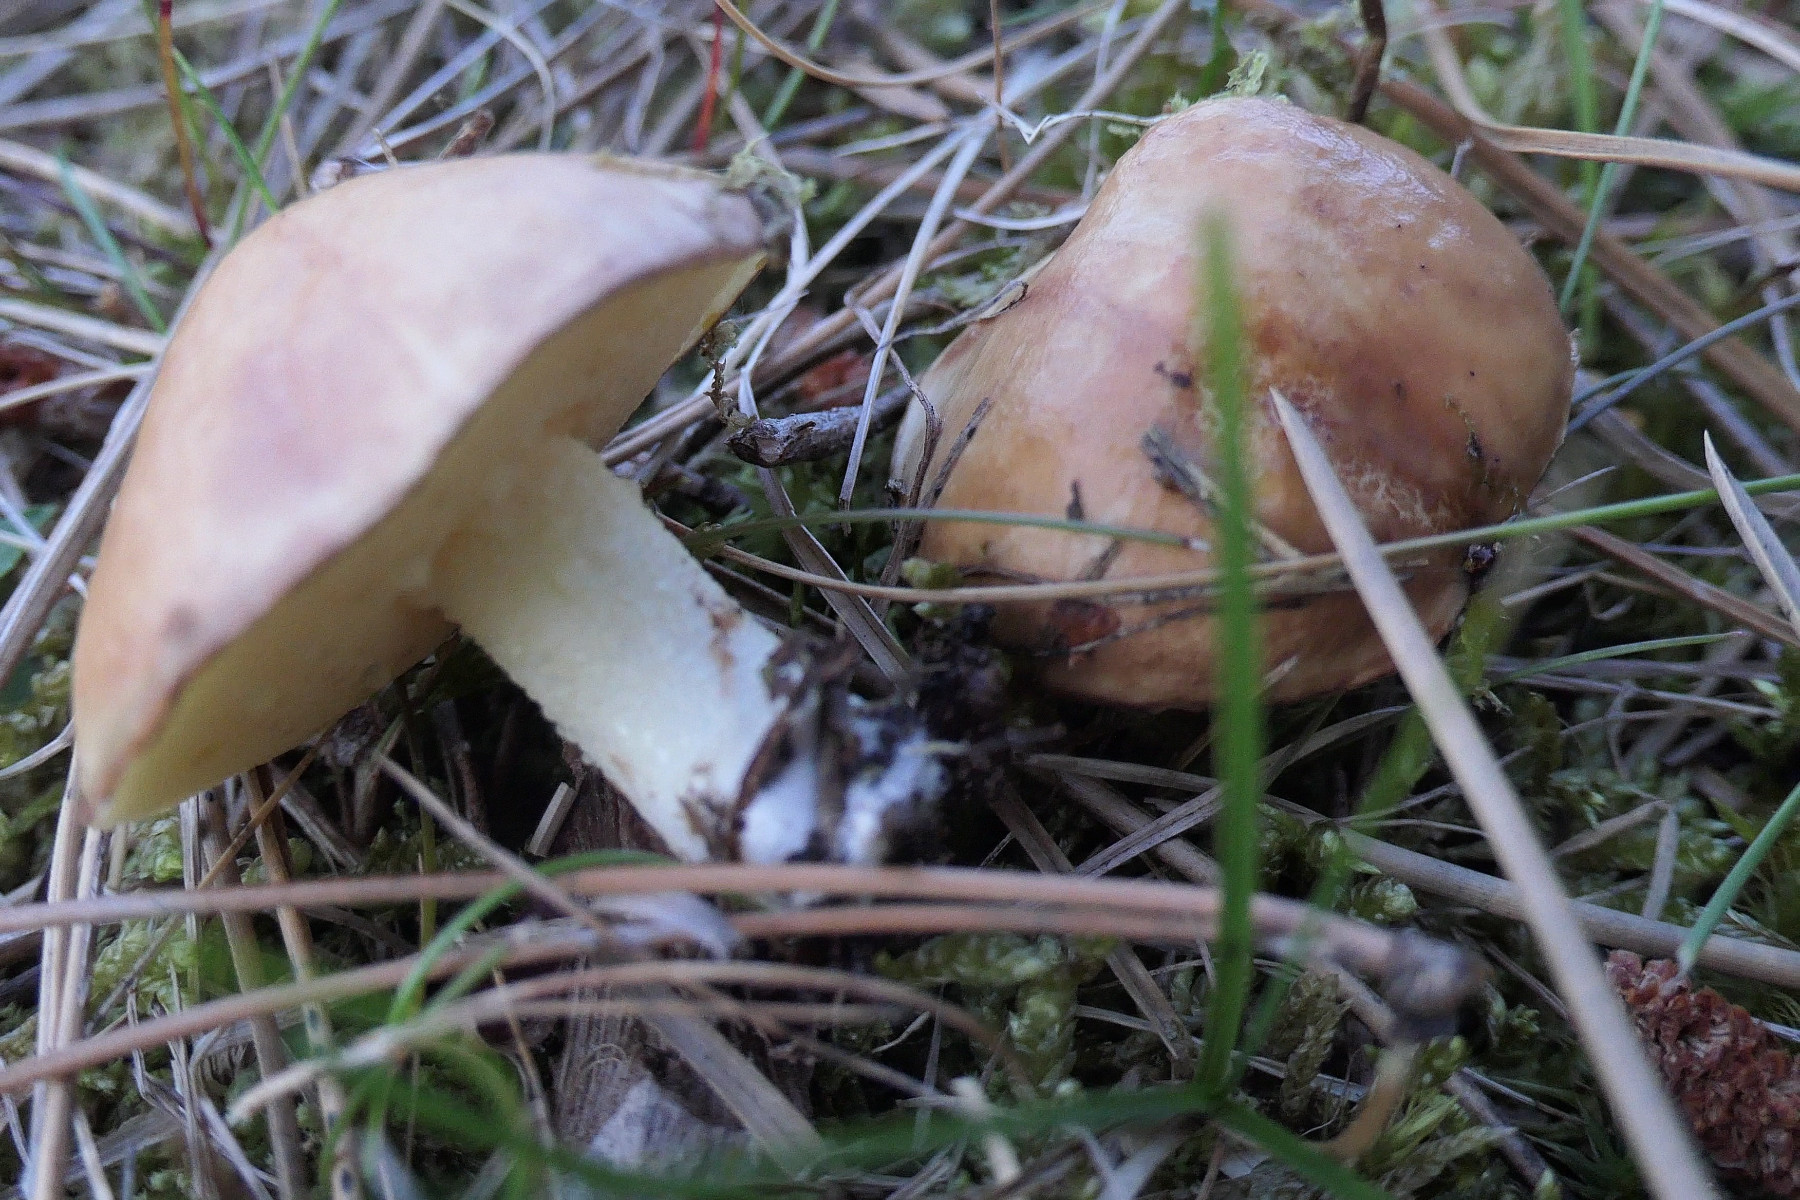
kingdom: Fungi
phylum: Basidiomycota
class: Agaricomycetes
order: Boletales
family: Suillaceae
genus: Suillus
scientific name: Suillus granulatus
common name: kornet slimrørhat
